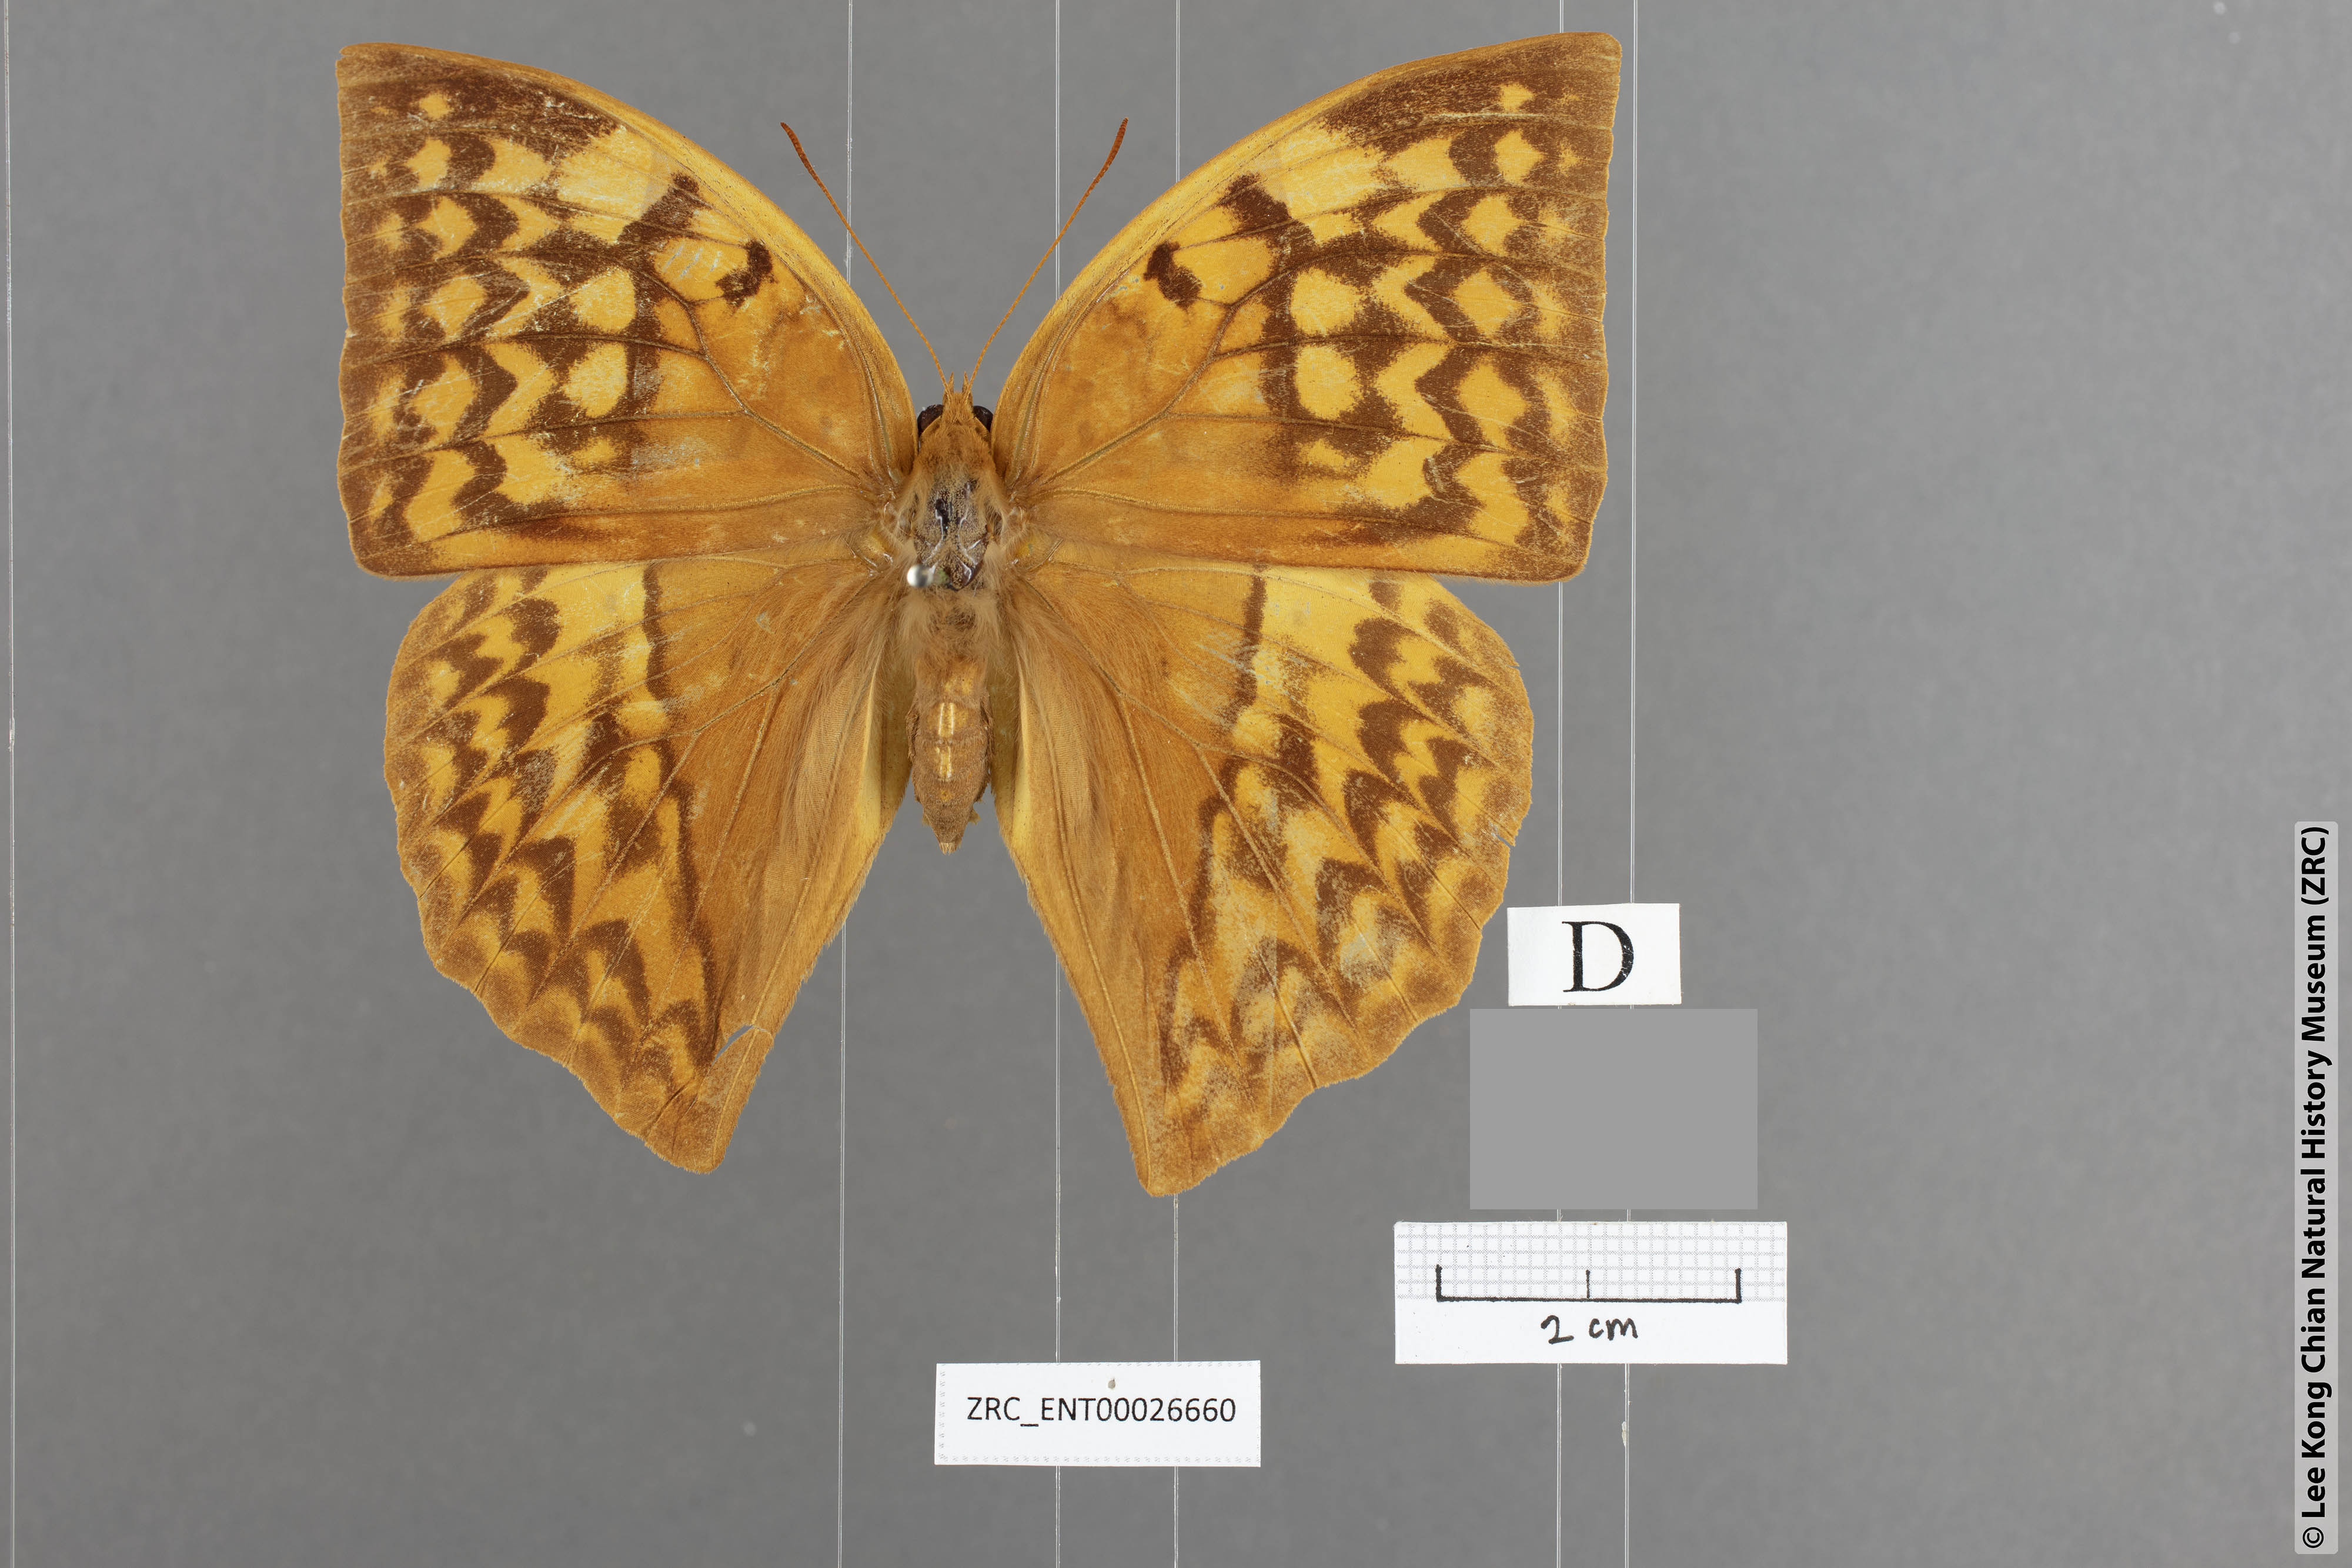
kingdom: Animalia
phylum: Arthropoda
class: Insecta
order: Lepidoptera
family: Nymphalidae
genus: Enispe
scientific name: Enispe intermedia
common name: Intermediate caliph
